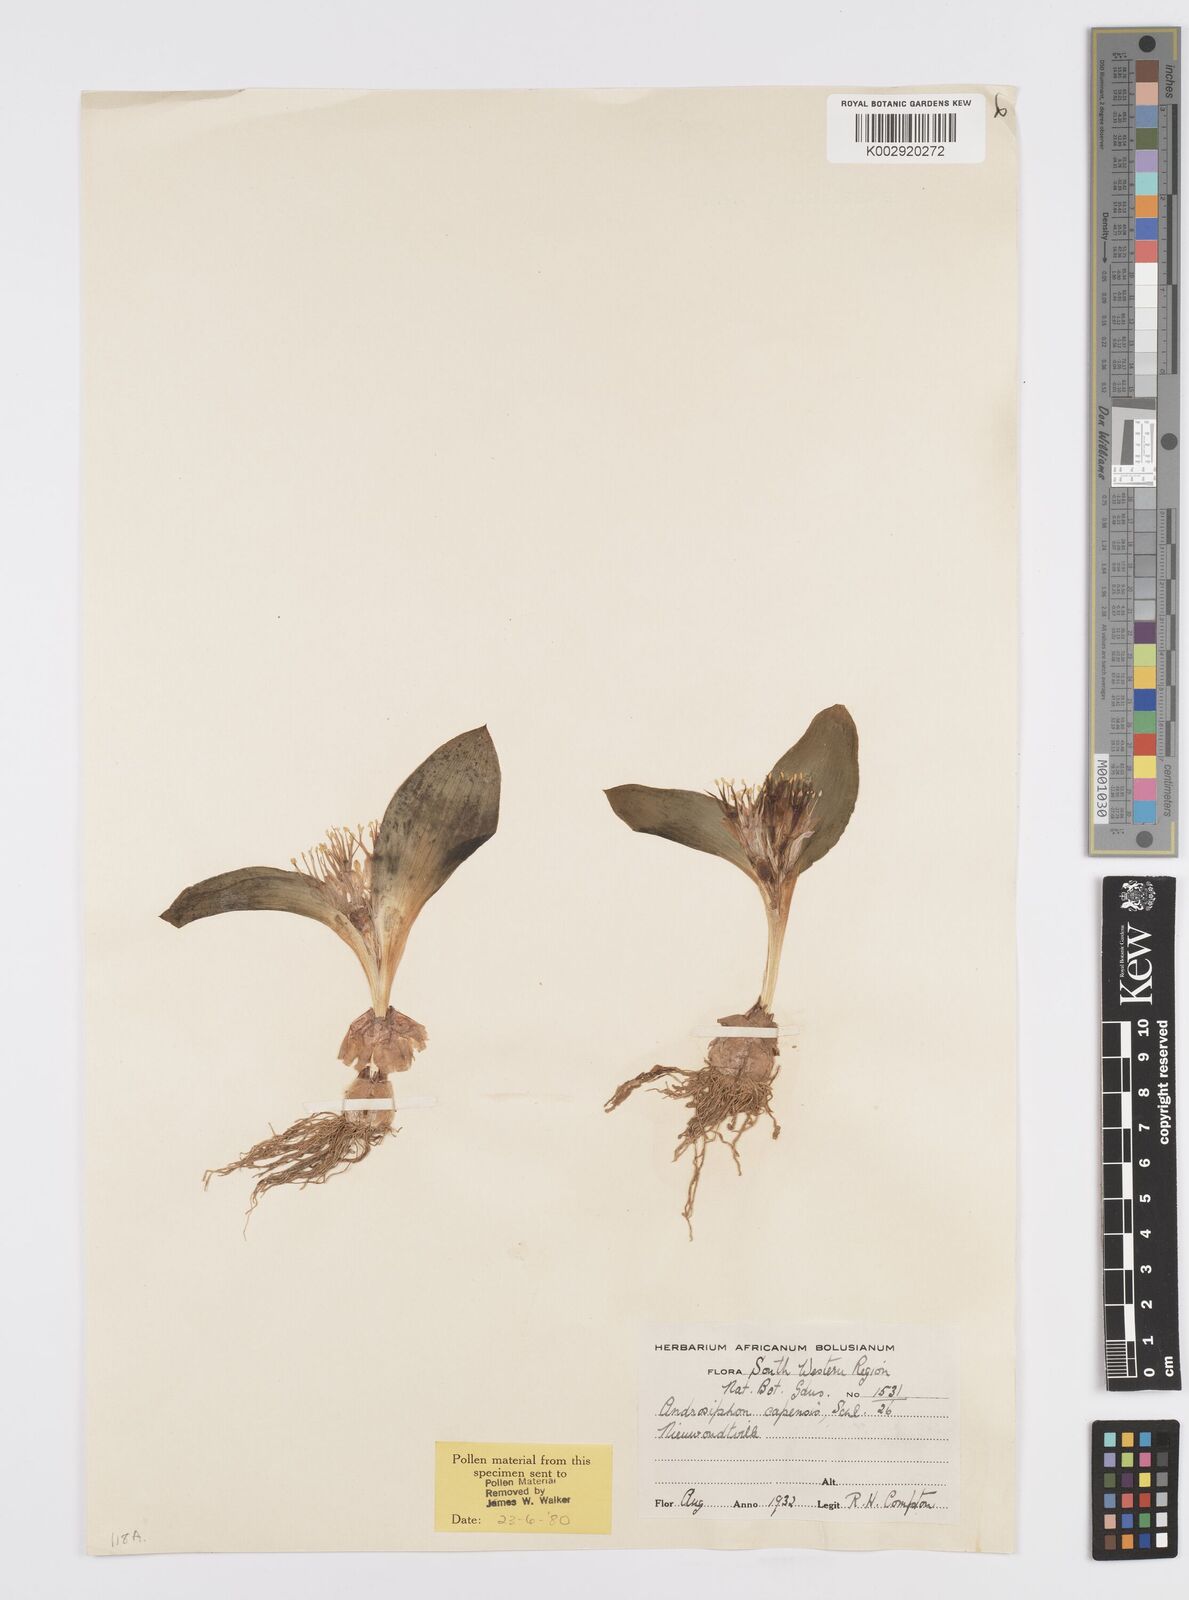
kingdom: Plantae
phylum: Tracheophyta
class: Liliopsida
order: Asparagales
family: Asparagaceae
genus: Daubenya
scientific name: Daubenya capensis
